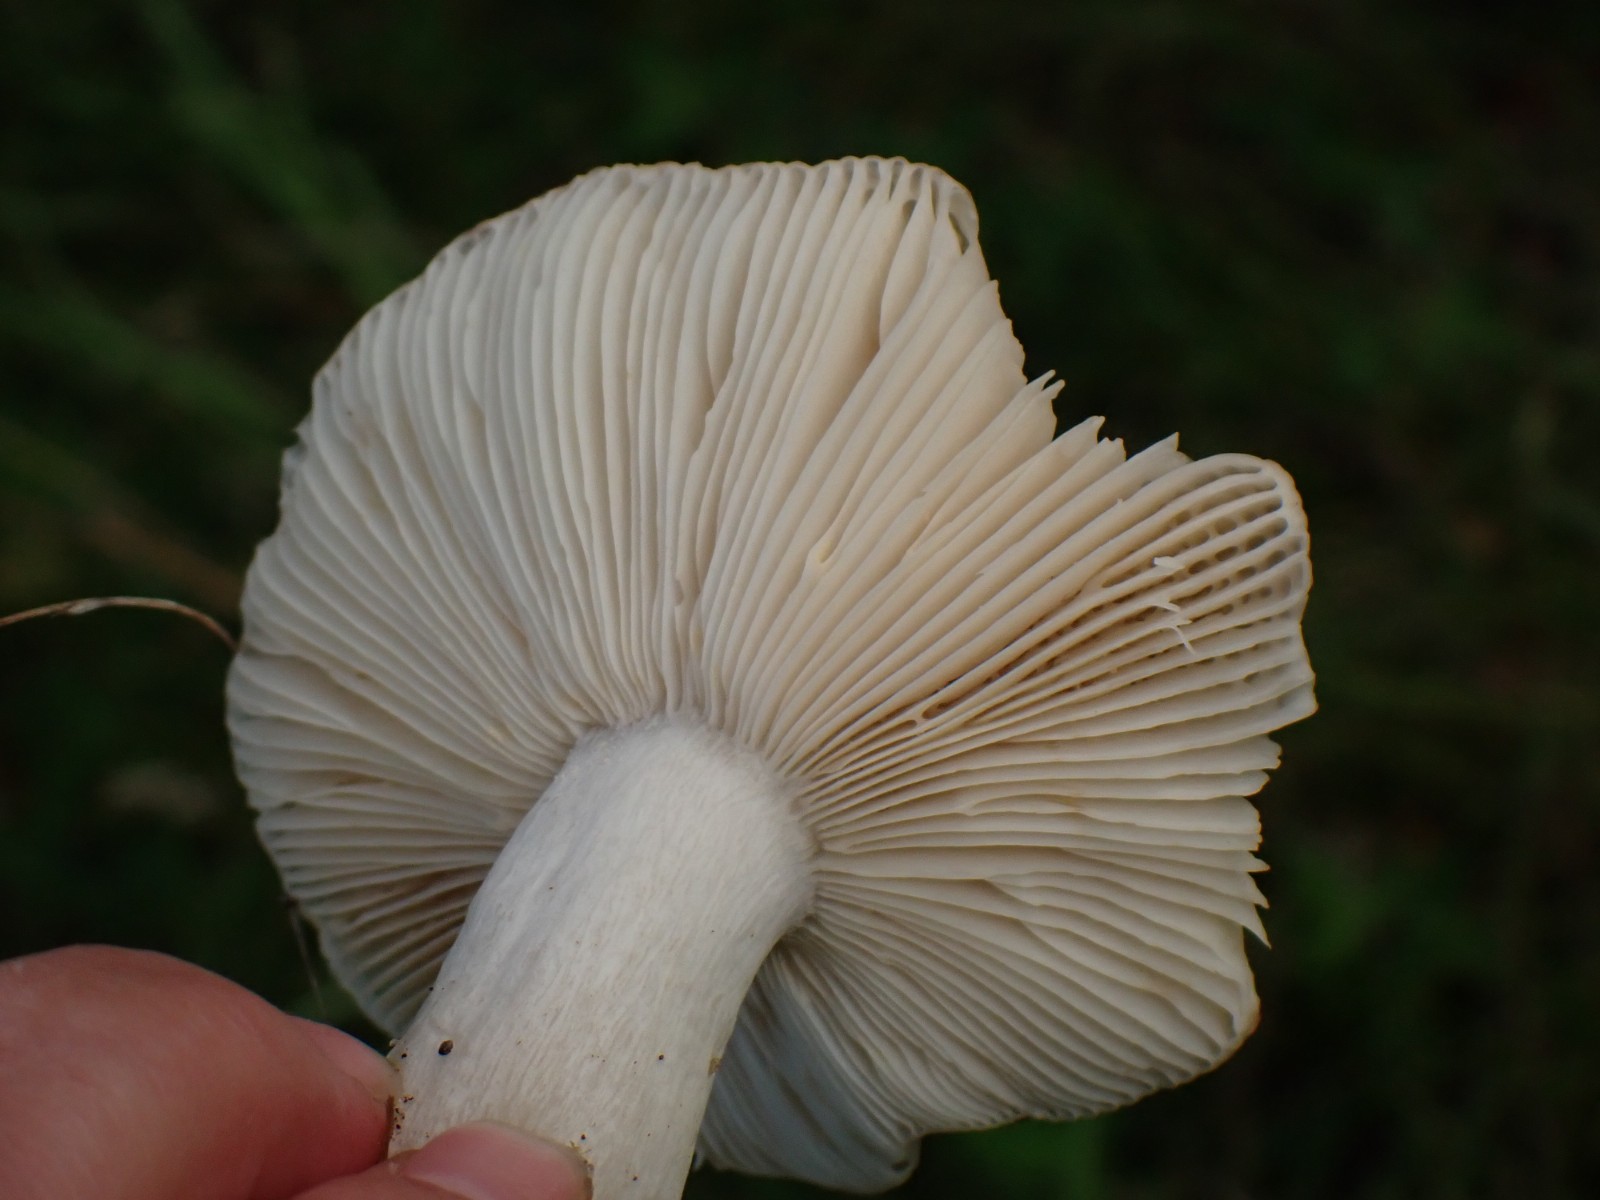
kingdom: Fungi
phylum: Basidiomycota
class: Agaricomycetes
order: Russulales
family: Russulaceae
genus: Russula
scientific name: Russula
